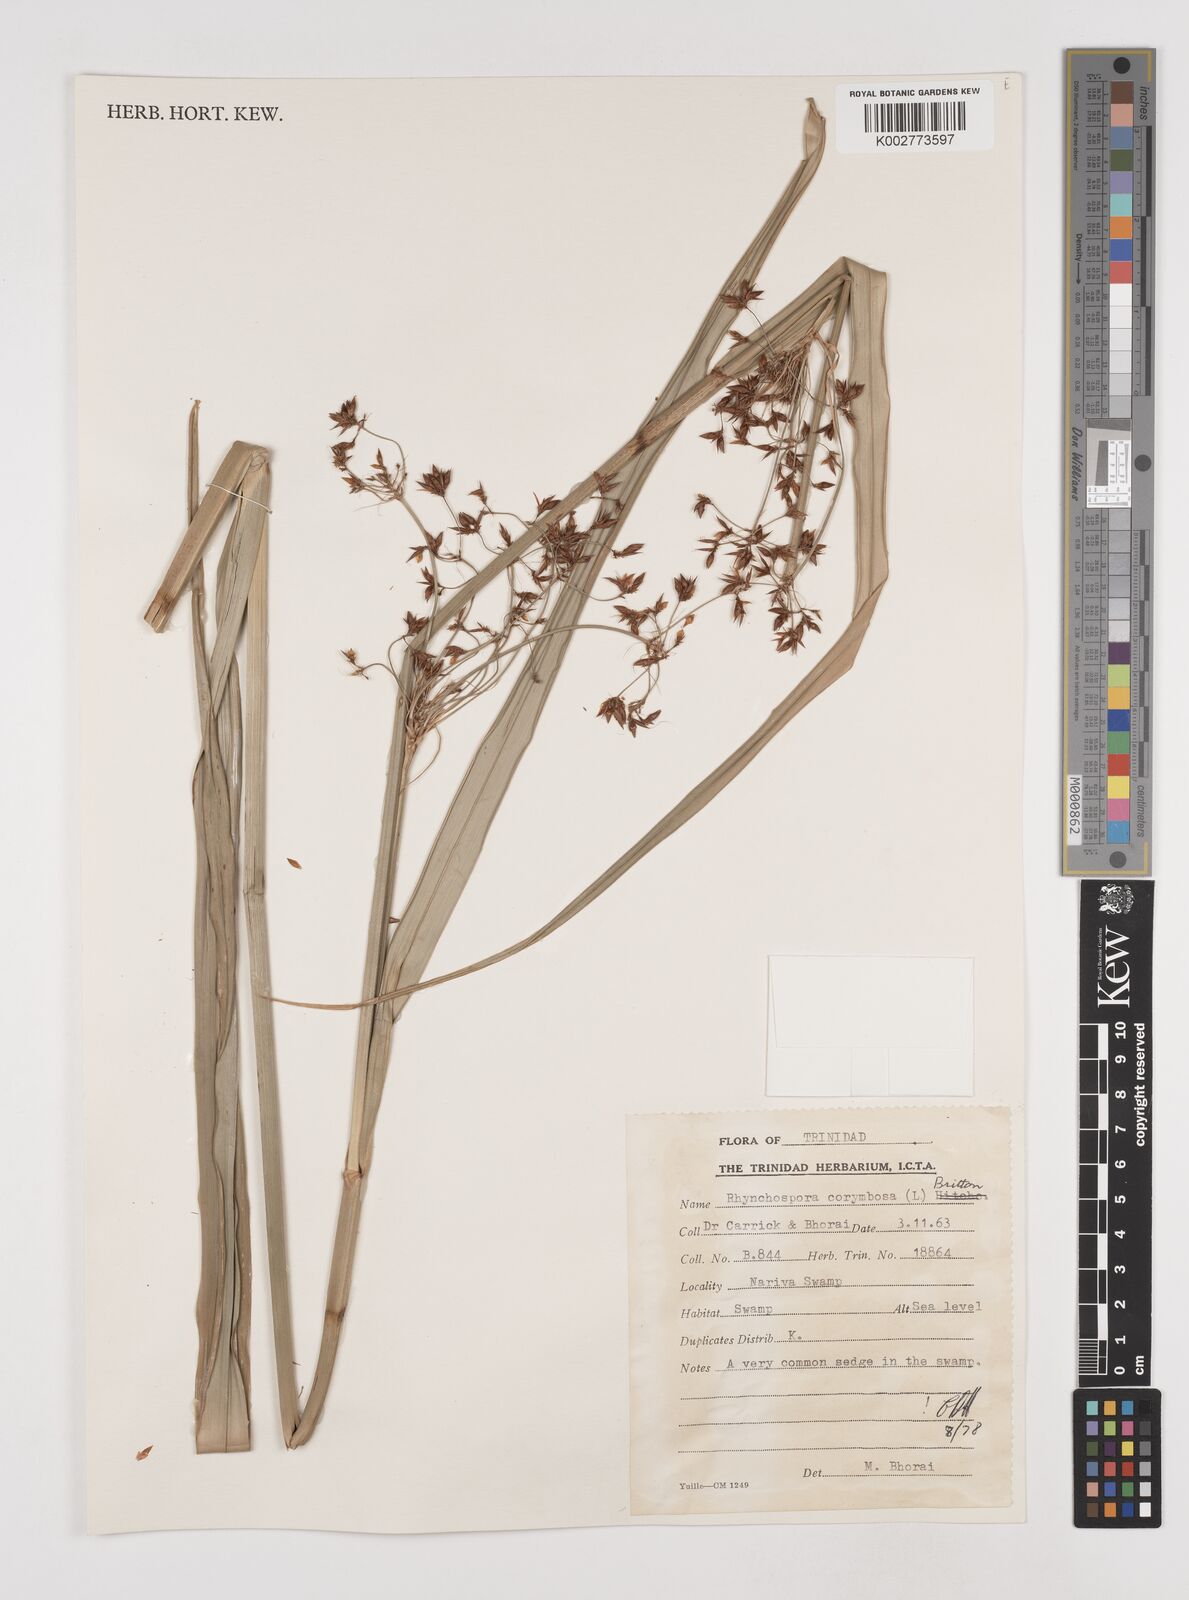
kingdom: Plantae
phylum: Tracheophyta
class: Liliopsida
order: Poales
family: Cyperaceae
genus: Rhynchospora
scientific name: Rhynchospora corymbosa
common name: Golden beak sedge
